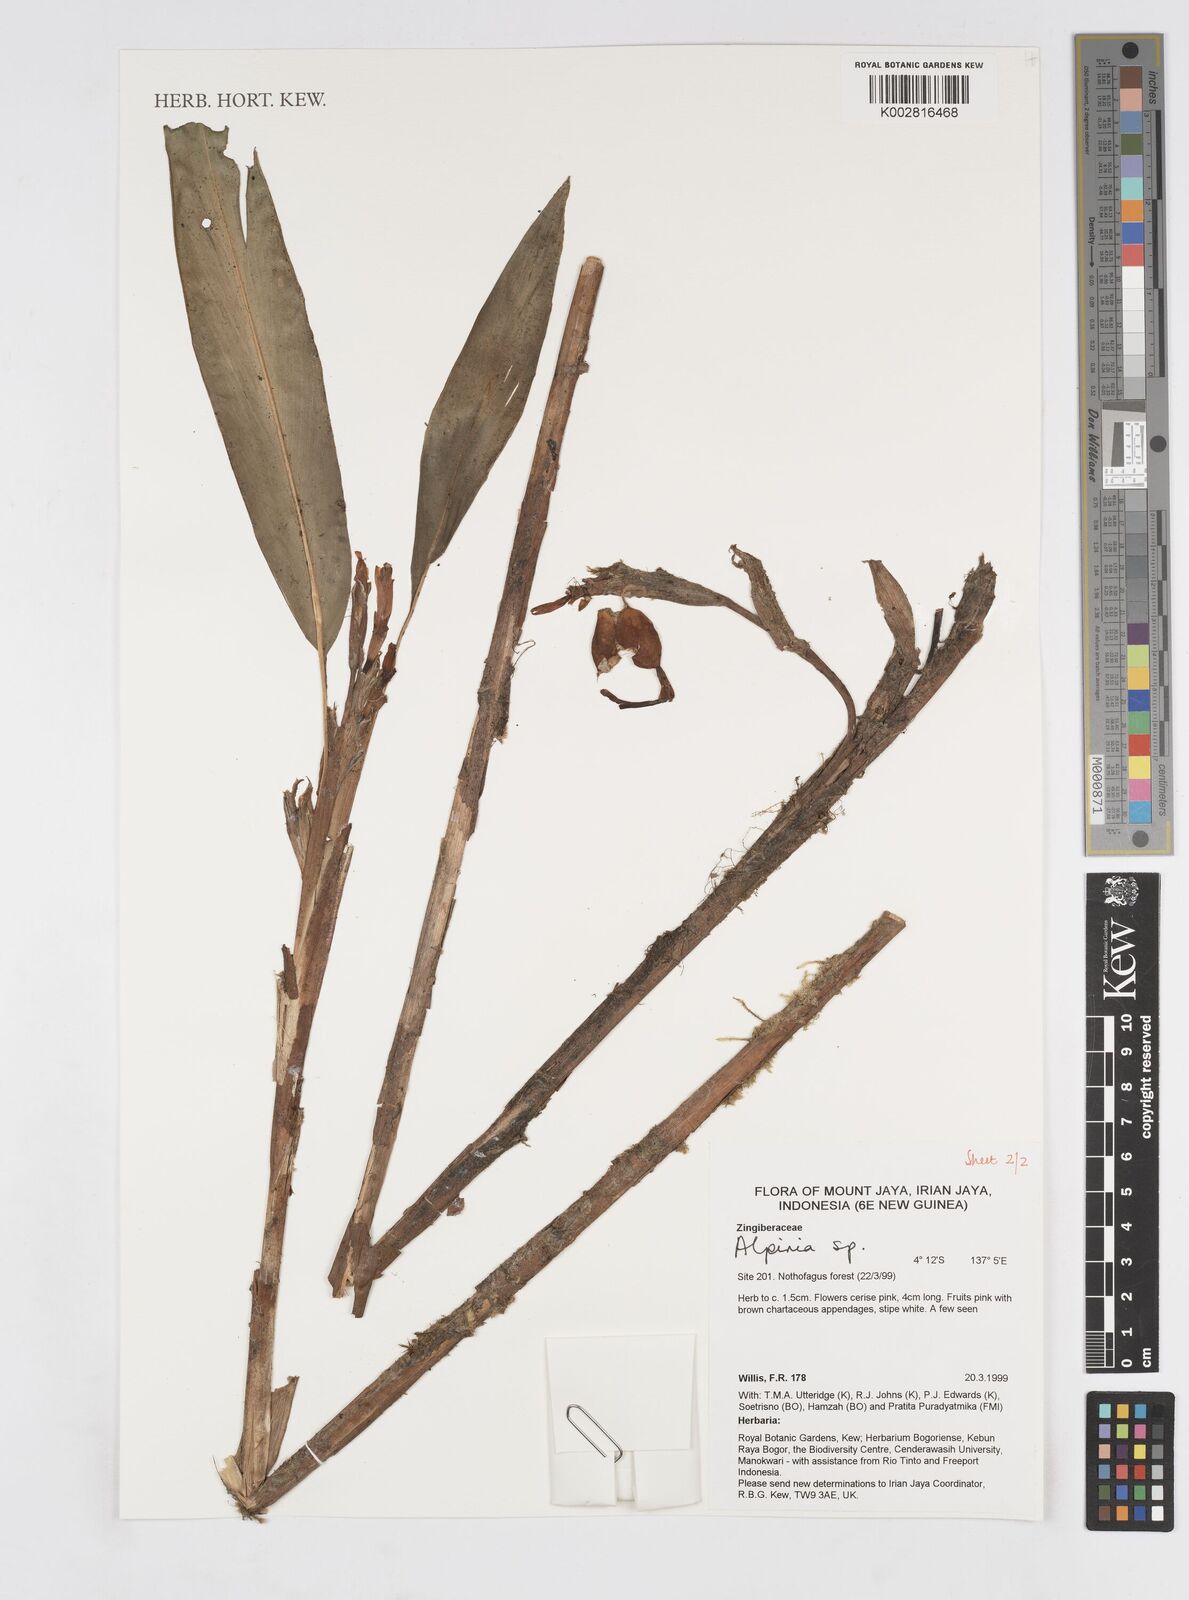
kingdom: Plantae
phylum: Tracheophyta
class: Liliopsida
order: Zingiberales
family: Zingiberaceae
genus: Alpinia
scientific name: Alpinia
